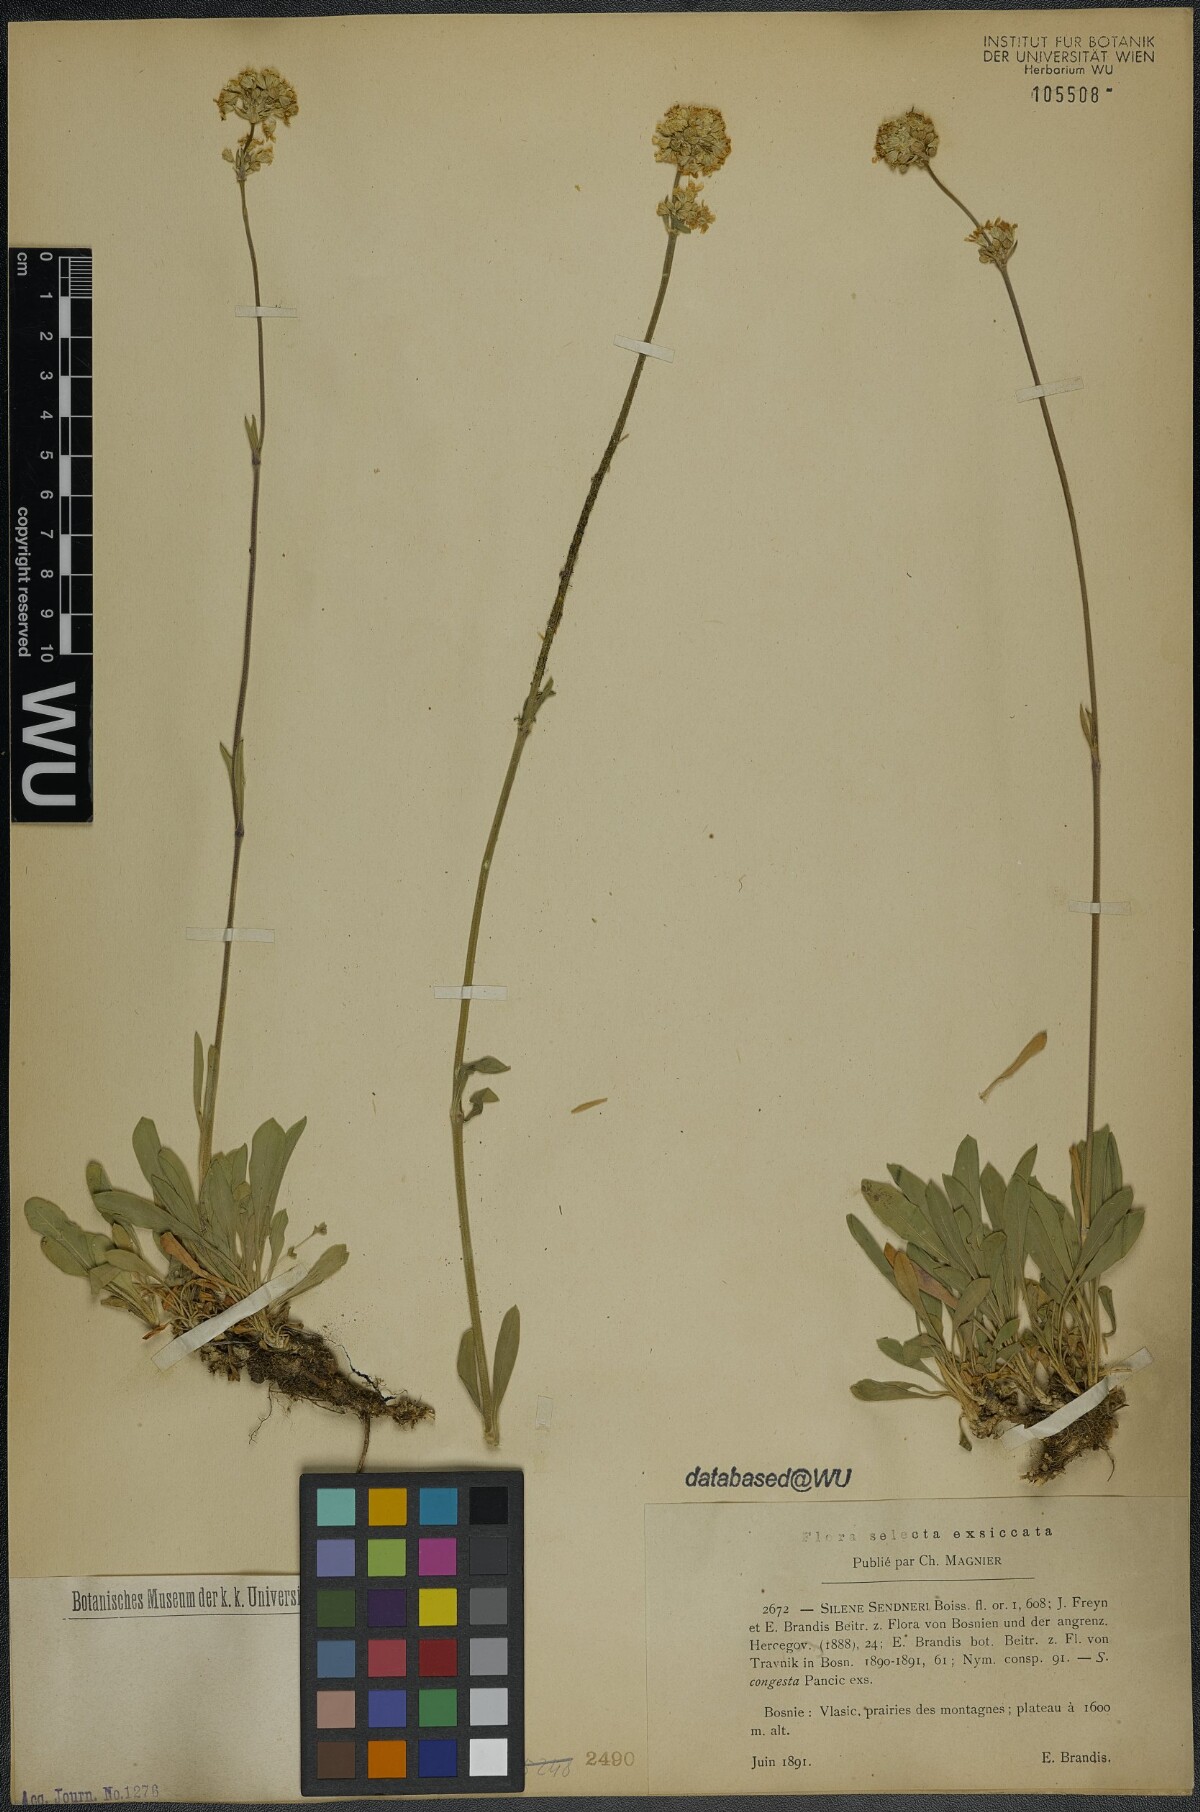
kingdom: Plantae
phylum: Tracheophyta
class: Magnoliopsida
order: Caryophyllales
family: Caryophyllaceae
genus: Silene
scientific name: Silene sendtneri
